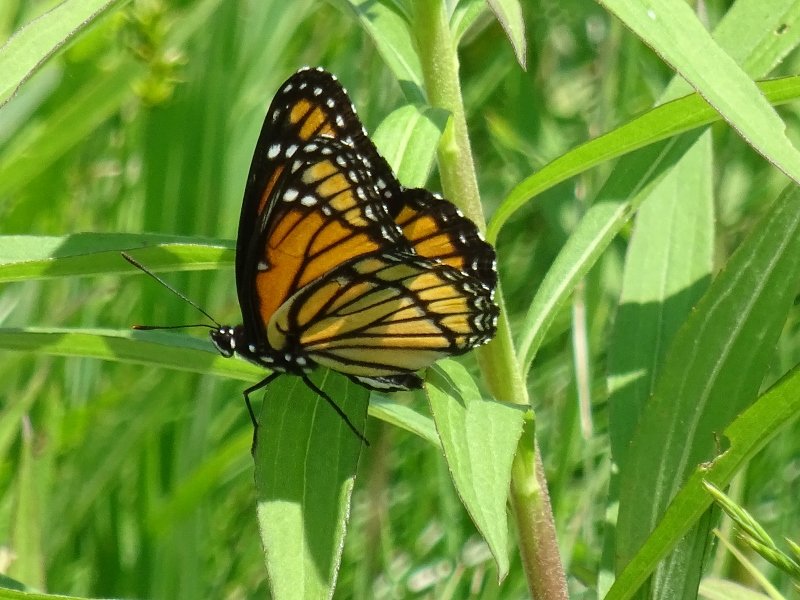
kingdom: Animalia
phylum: Arthropoda
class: Insecta
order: Lepidoptera
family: Nymphalidae
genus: Limenitis
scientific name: Limenitis archippus
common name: Viceroy
